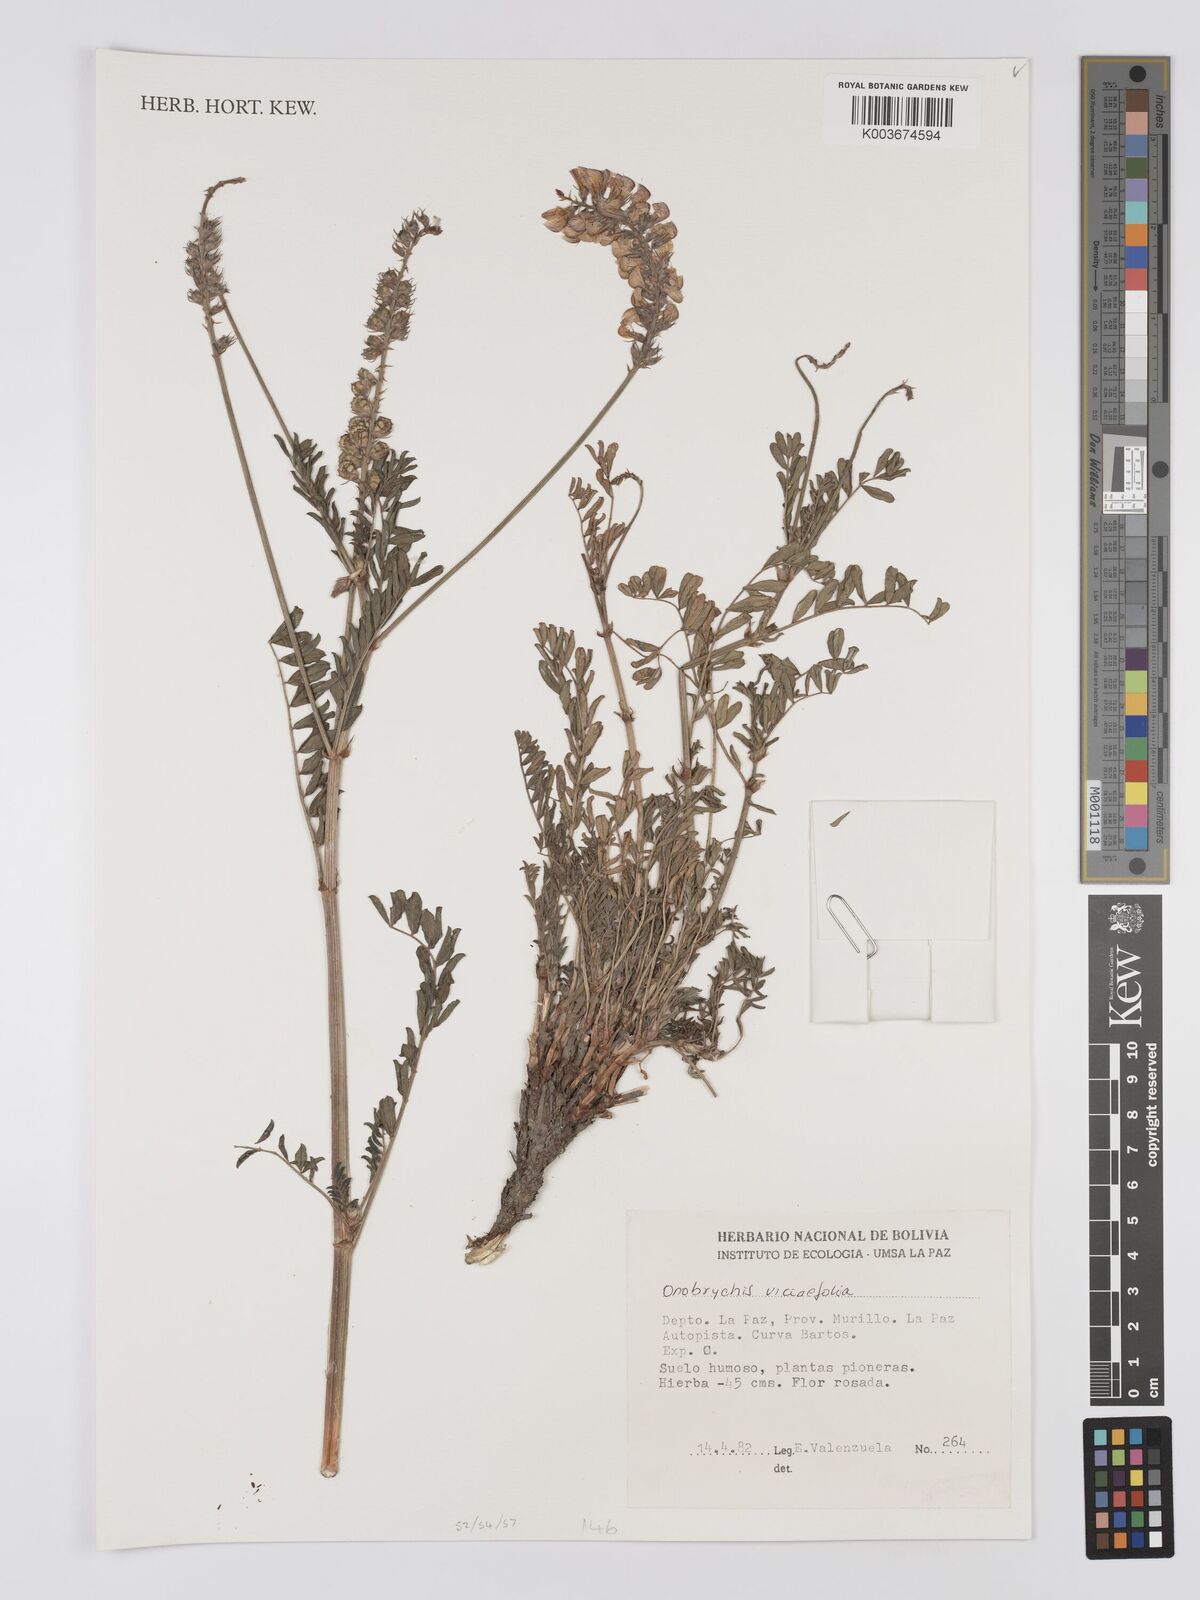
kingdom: Plantae
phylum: Tracheophyta
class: Magnoliopsida
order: Fabales
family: Fabaceae
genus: Onobrychis
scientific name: Onobrychis viciifolia
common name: Sainfoin
